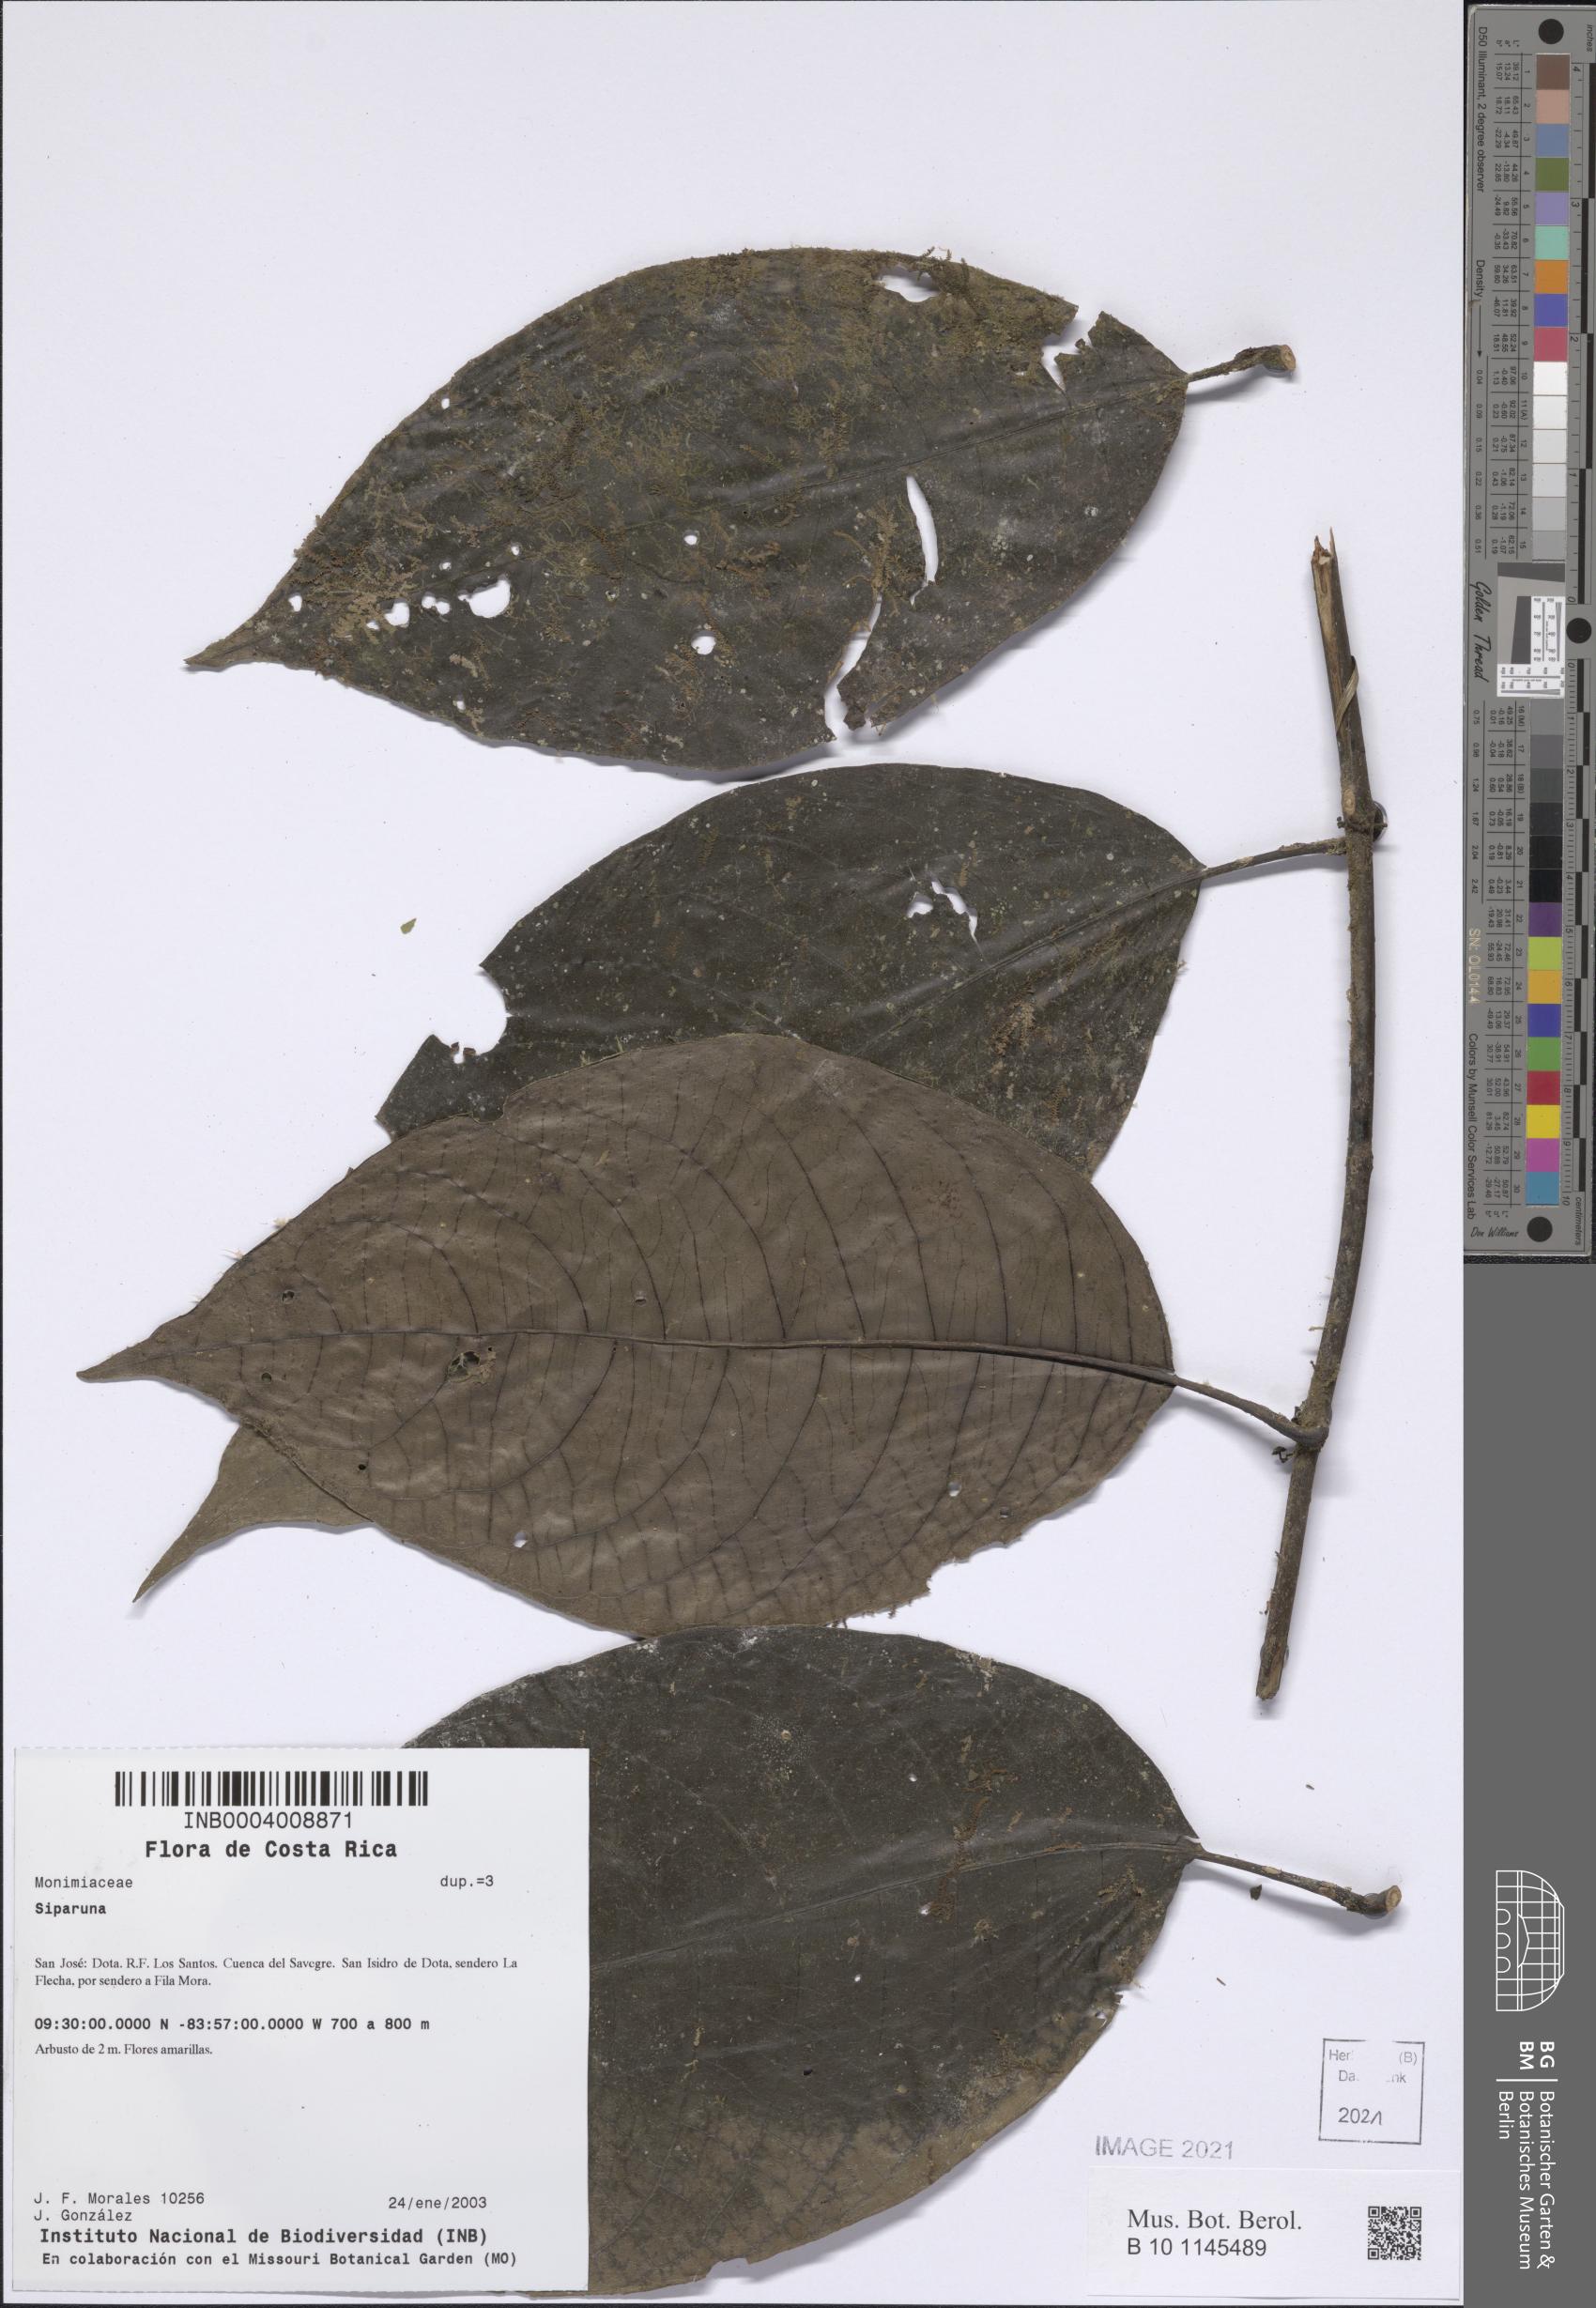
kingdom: Plantae
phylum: Tracheophyta
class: Magnoliopsida
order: Laurales
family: Siparunaceae
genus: Siparuna
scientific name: Siparuna
